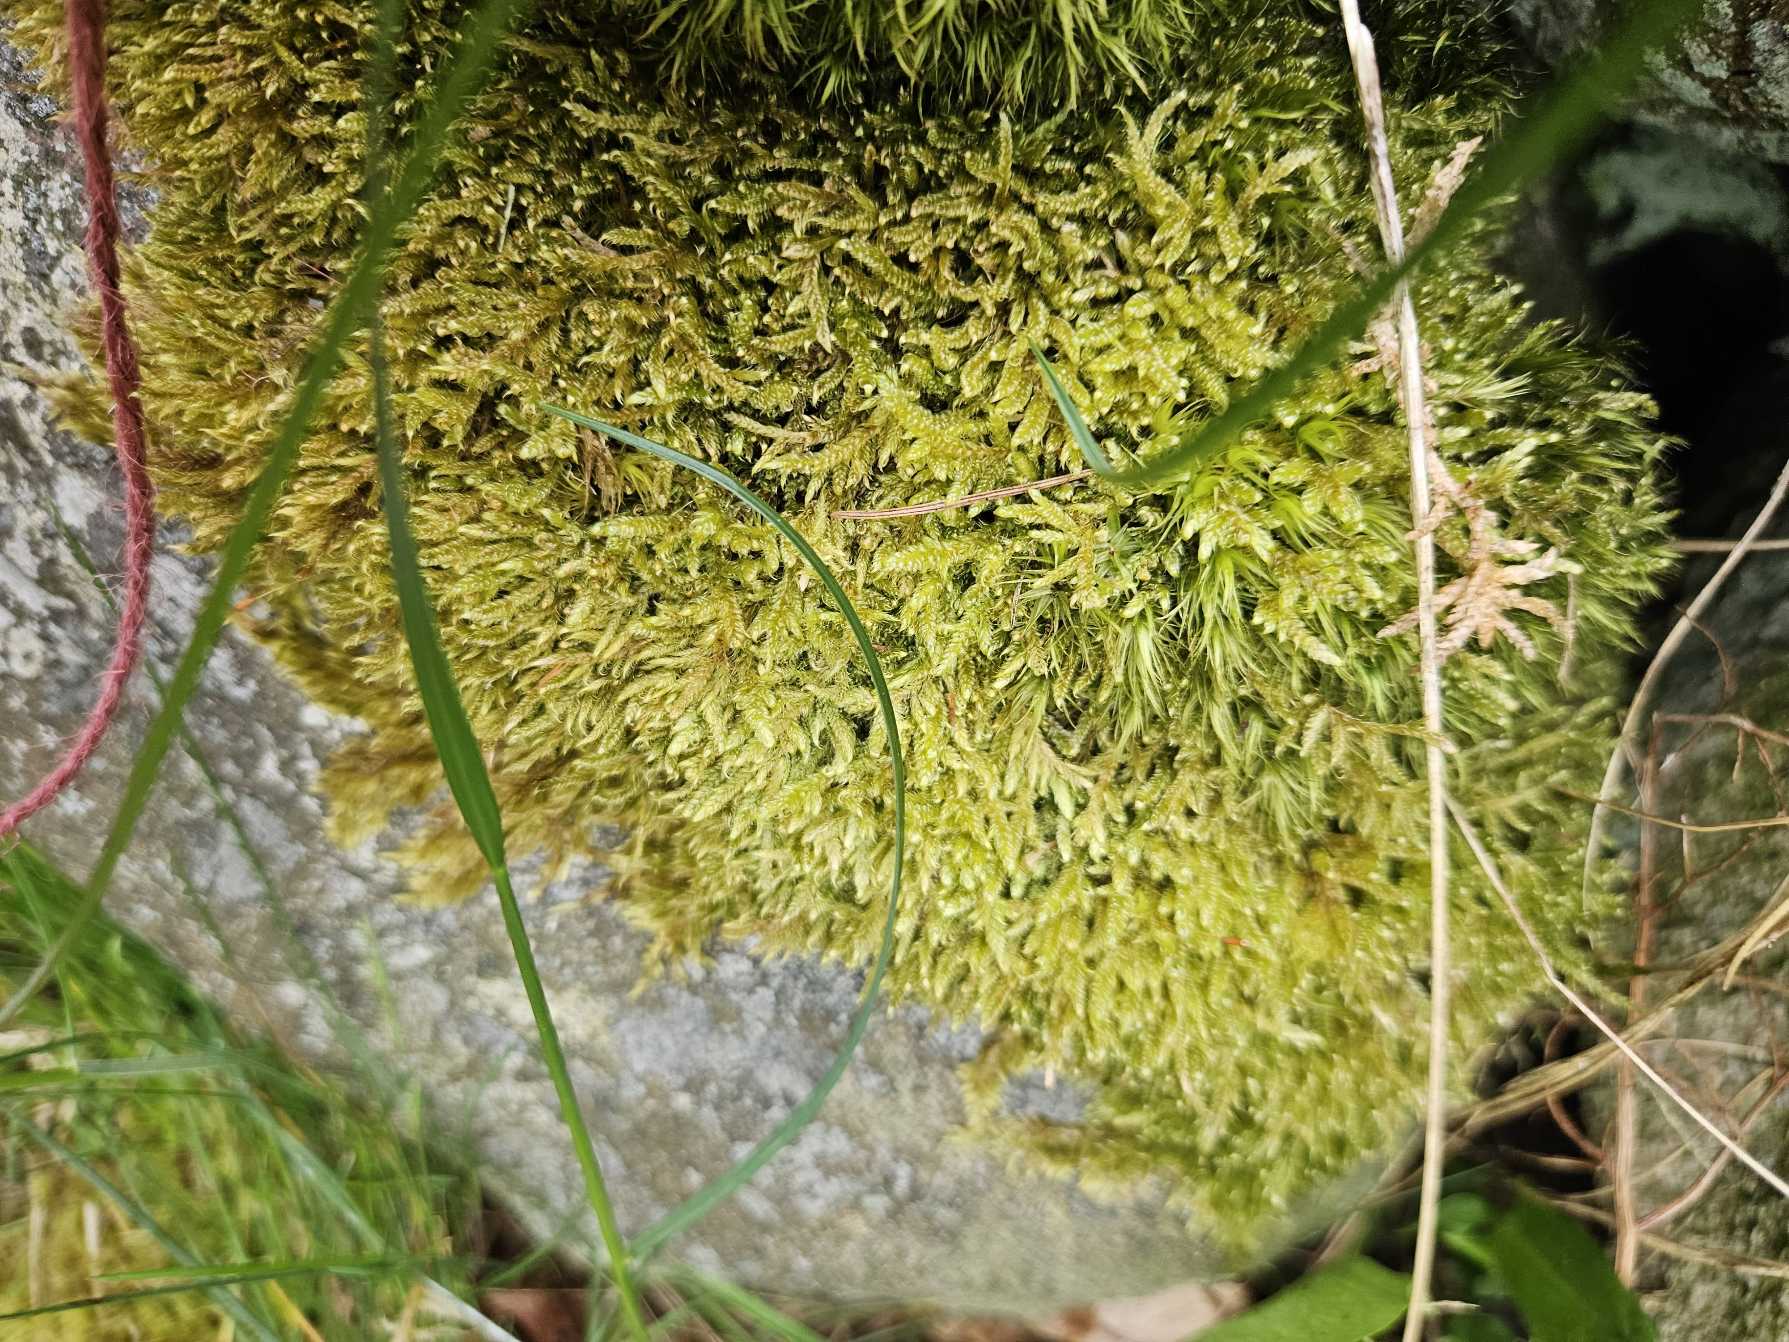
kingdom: Plantae
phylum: Bryophyta
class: Bryopsida
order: Hypnales
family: Hypnaceae
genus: Hypnum
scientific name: Hypnum cupressiforme
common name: Almindelig cypresmos
